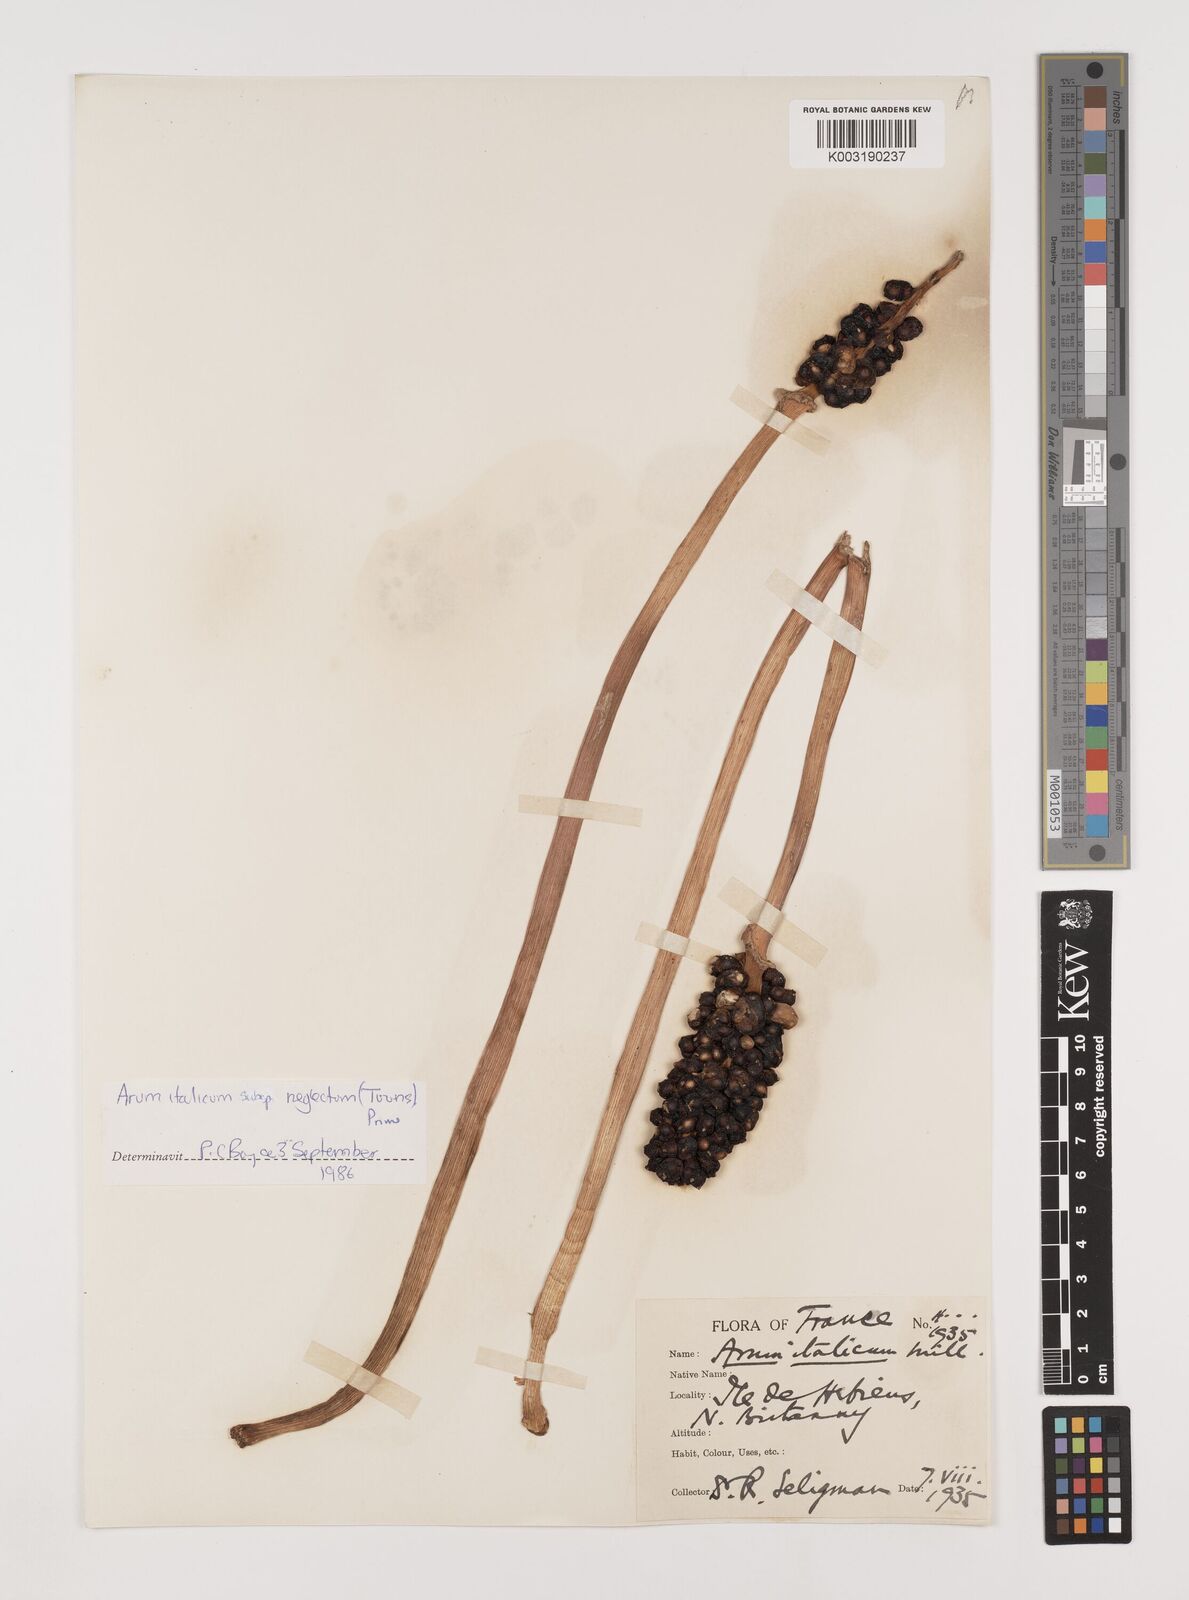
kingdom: Plantae
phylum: Tracheophyta
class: Liliopsida
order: Alismatales
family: Araceae
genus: Arum
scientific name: Arum italicum
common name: Italian lords-and-ladies
